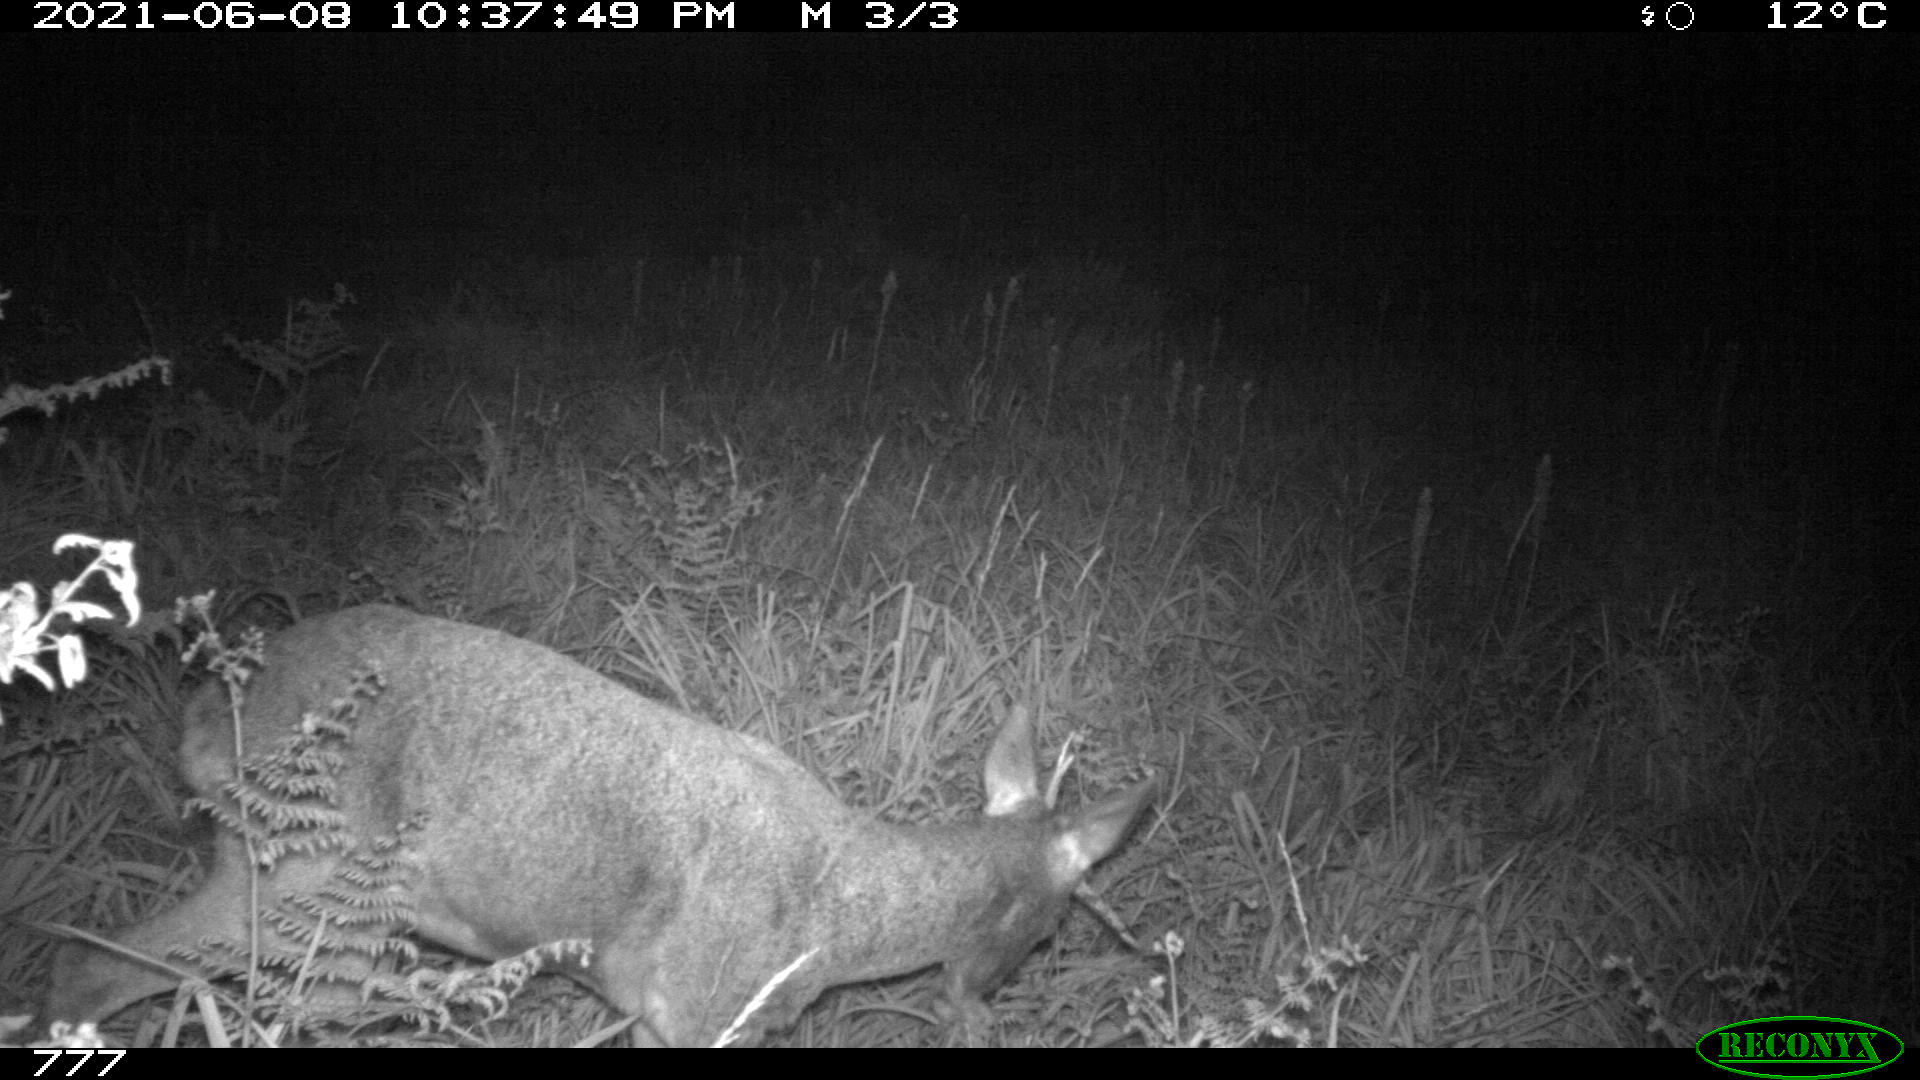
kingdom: Animalia
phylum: Chordata
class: Mammalia
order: Artiodactyla
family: Cervidae
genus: Capreolus
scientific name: Capreolus capreolus
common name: Western roe deer
